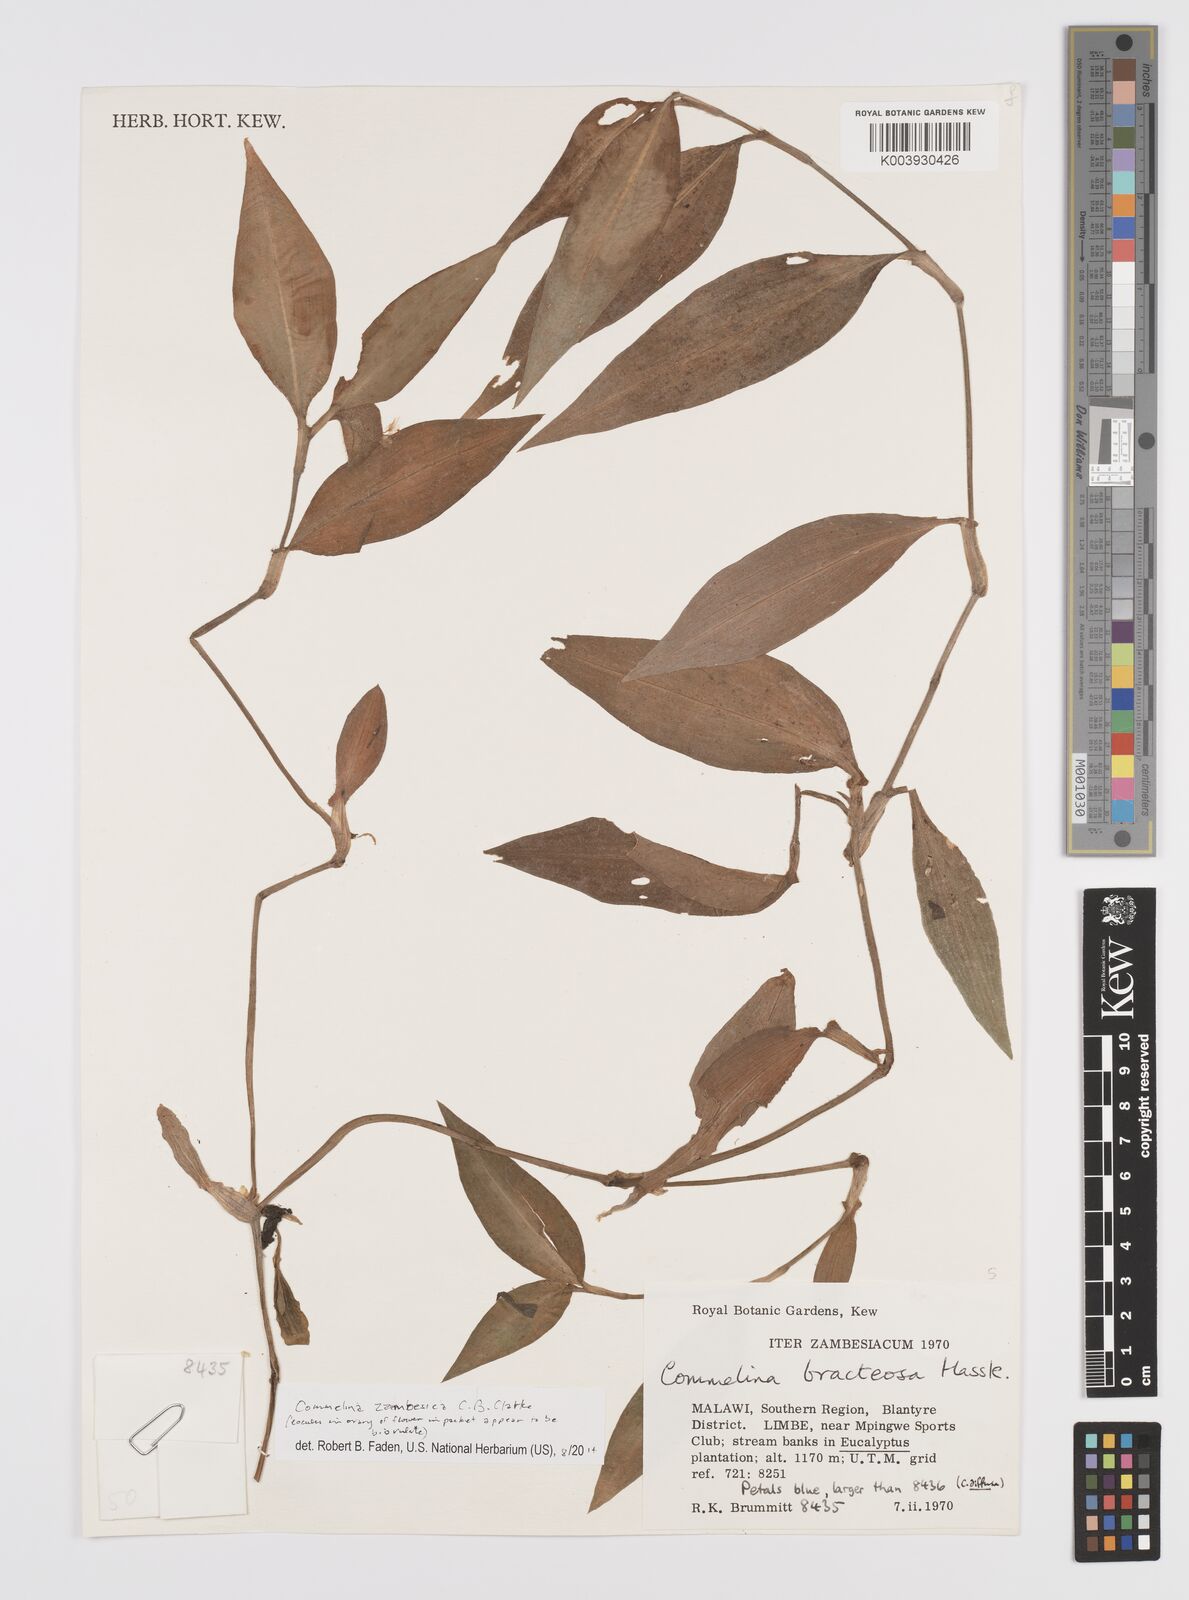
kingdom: Plantae
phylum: Tracheophyta
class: Liliopsida
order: Commelinales
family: Commelinaceae
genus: Commelina
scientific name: Commelina zambesica
